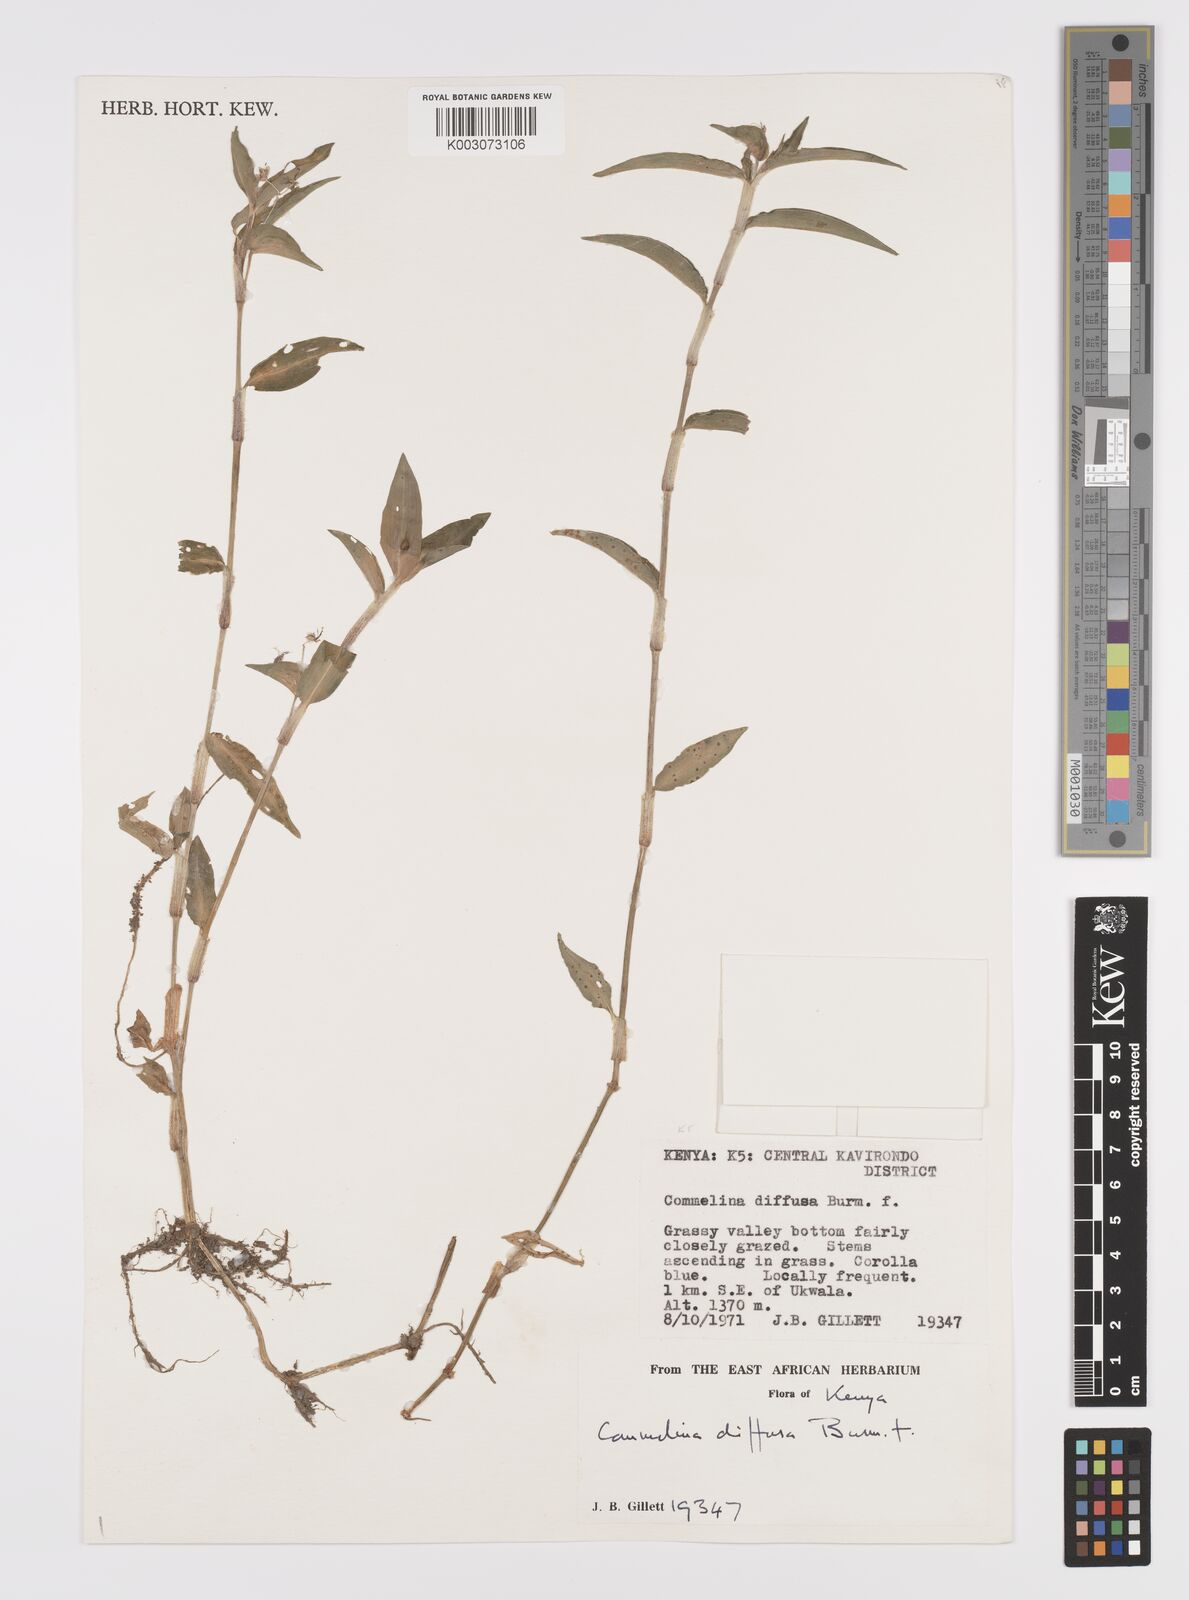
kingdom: Plantae
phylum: Tracheophyta
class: Liliopsida
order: Commelinales
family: Commelinaceae
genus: Commelina
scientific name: Commelina diffusa
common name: Climbing dayflower
